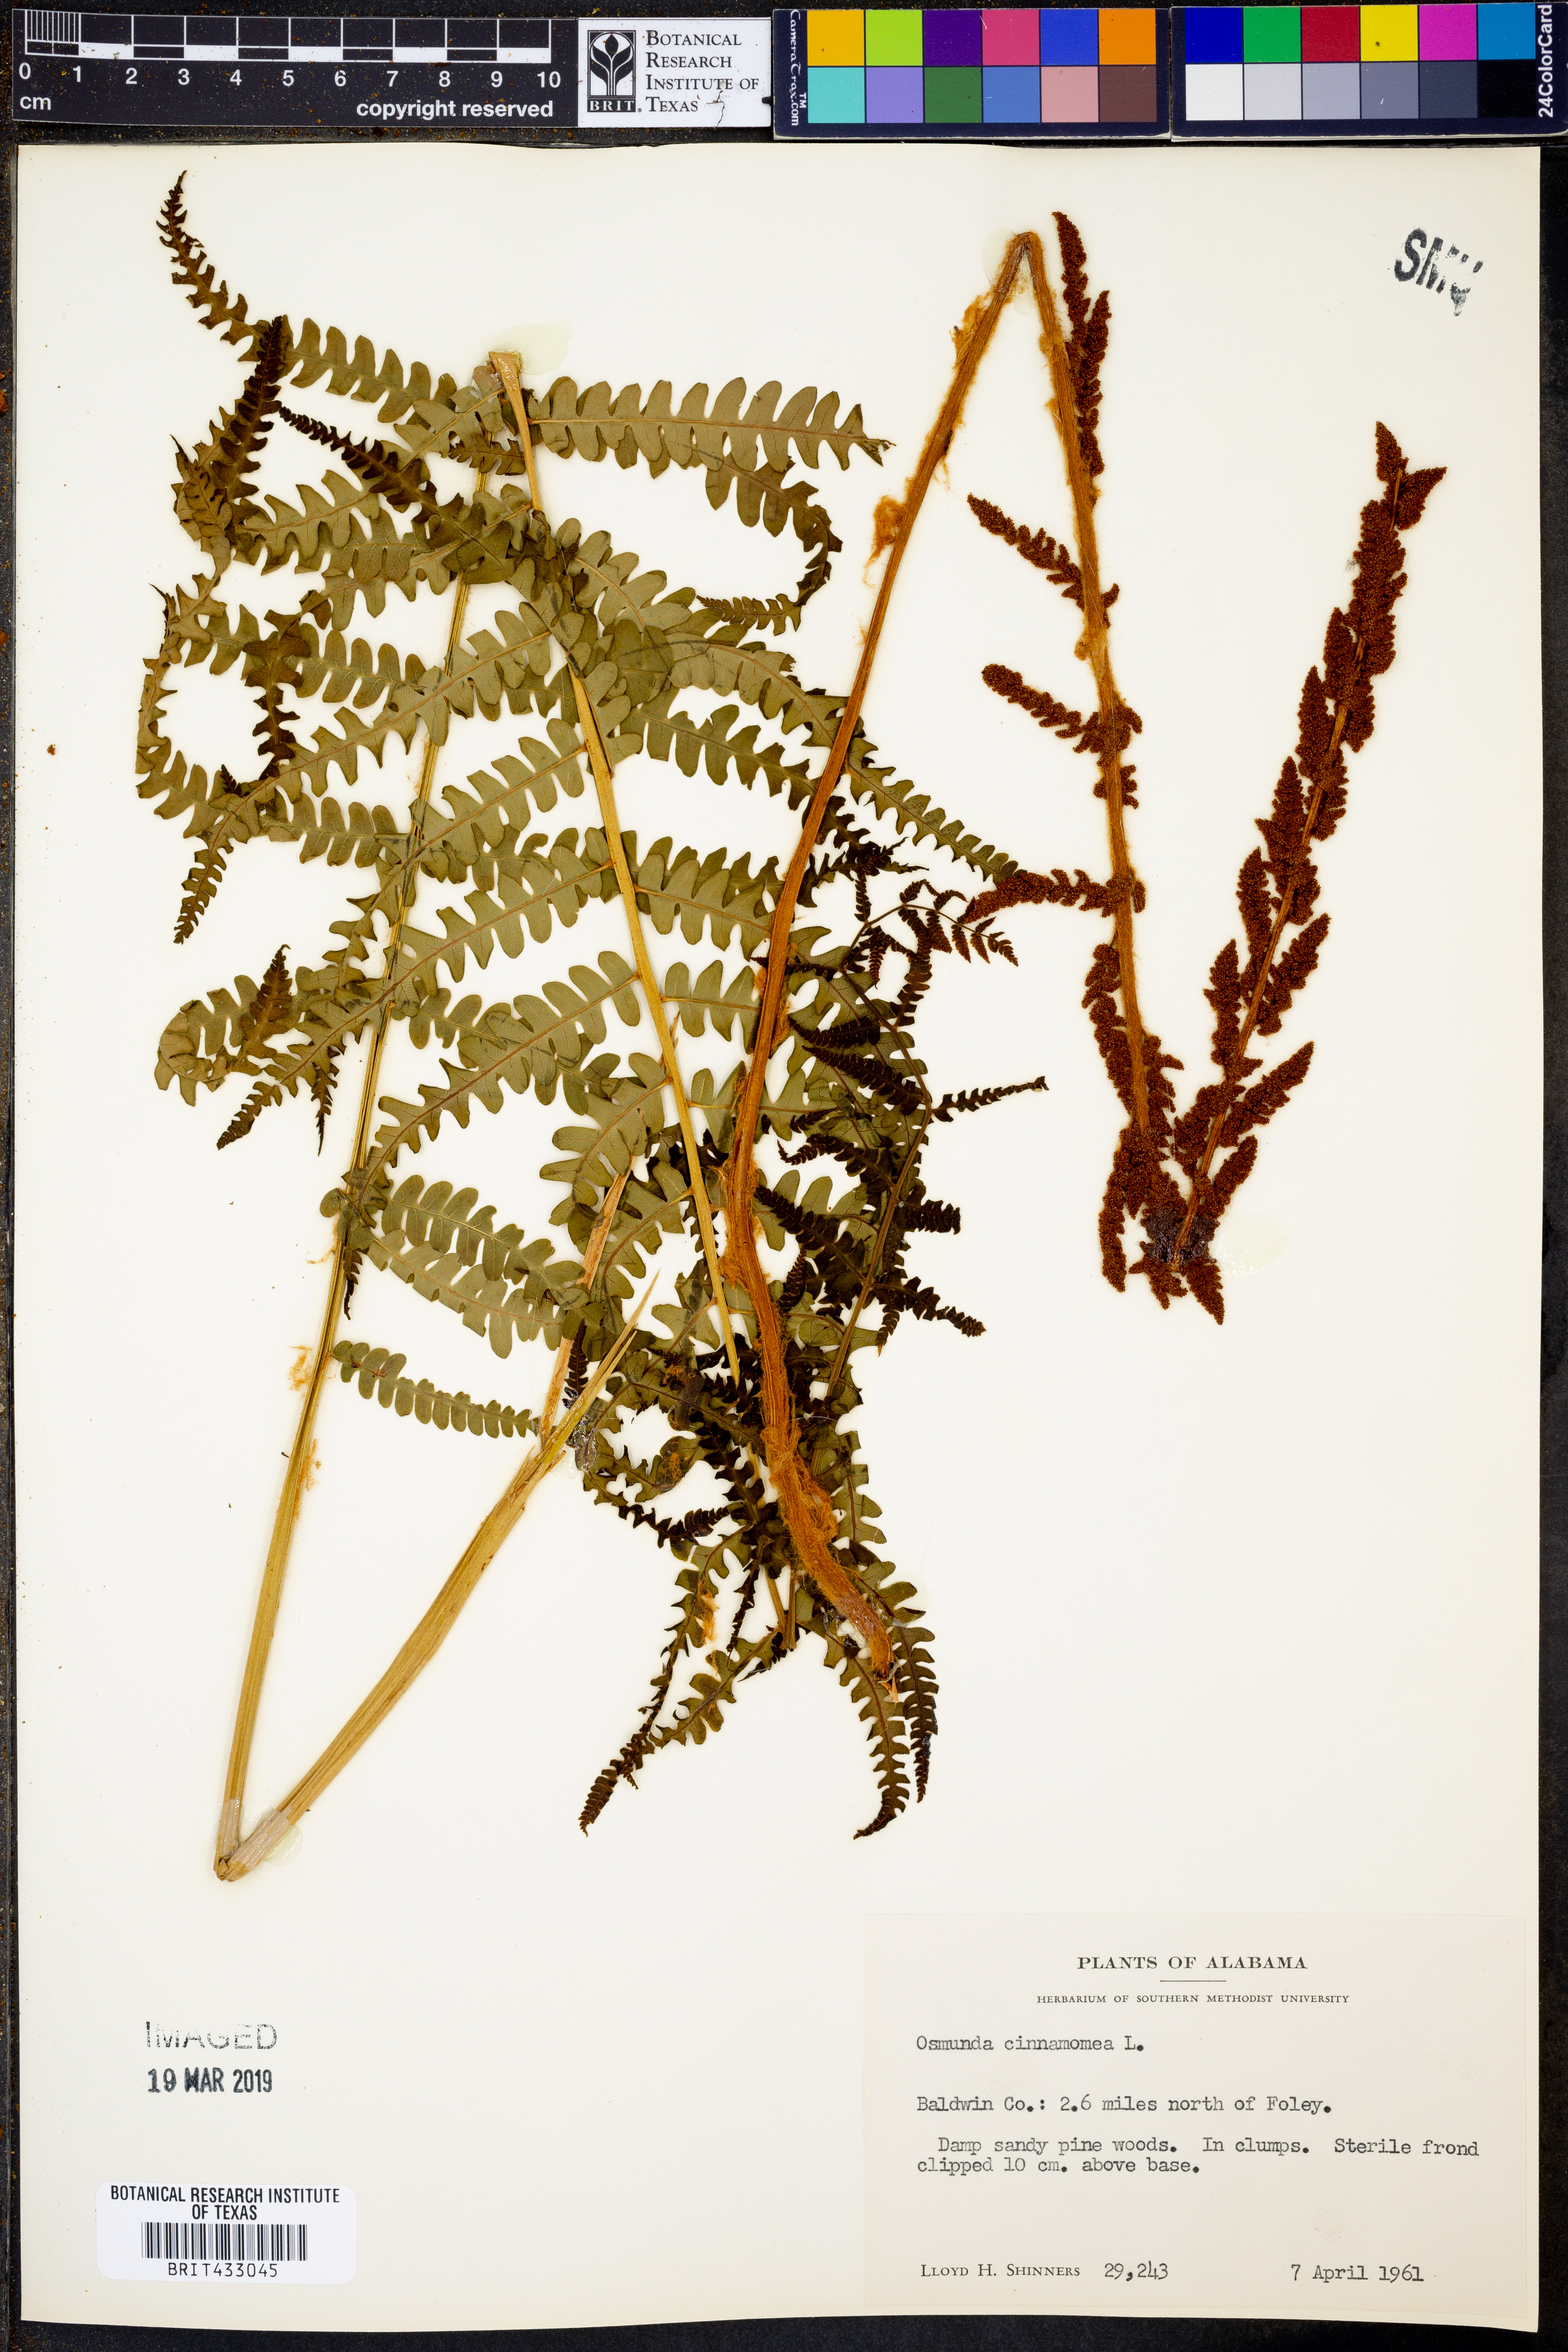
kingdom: Plantae
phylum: Tracheophyta
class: Polypodiopsida
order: Osmundales
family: Osmundaceae
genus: Osmundastrum
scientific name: Osmundastrum cinnamomeum
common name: Cinnamon fern
